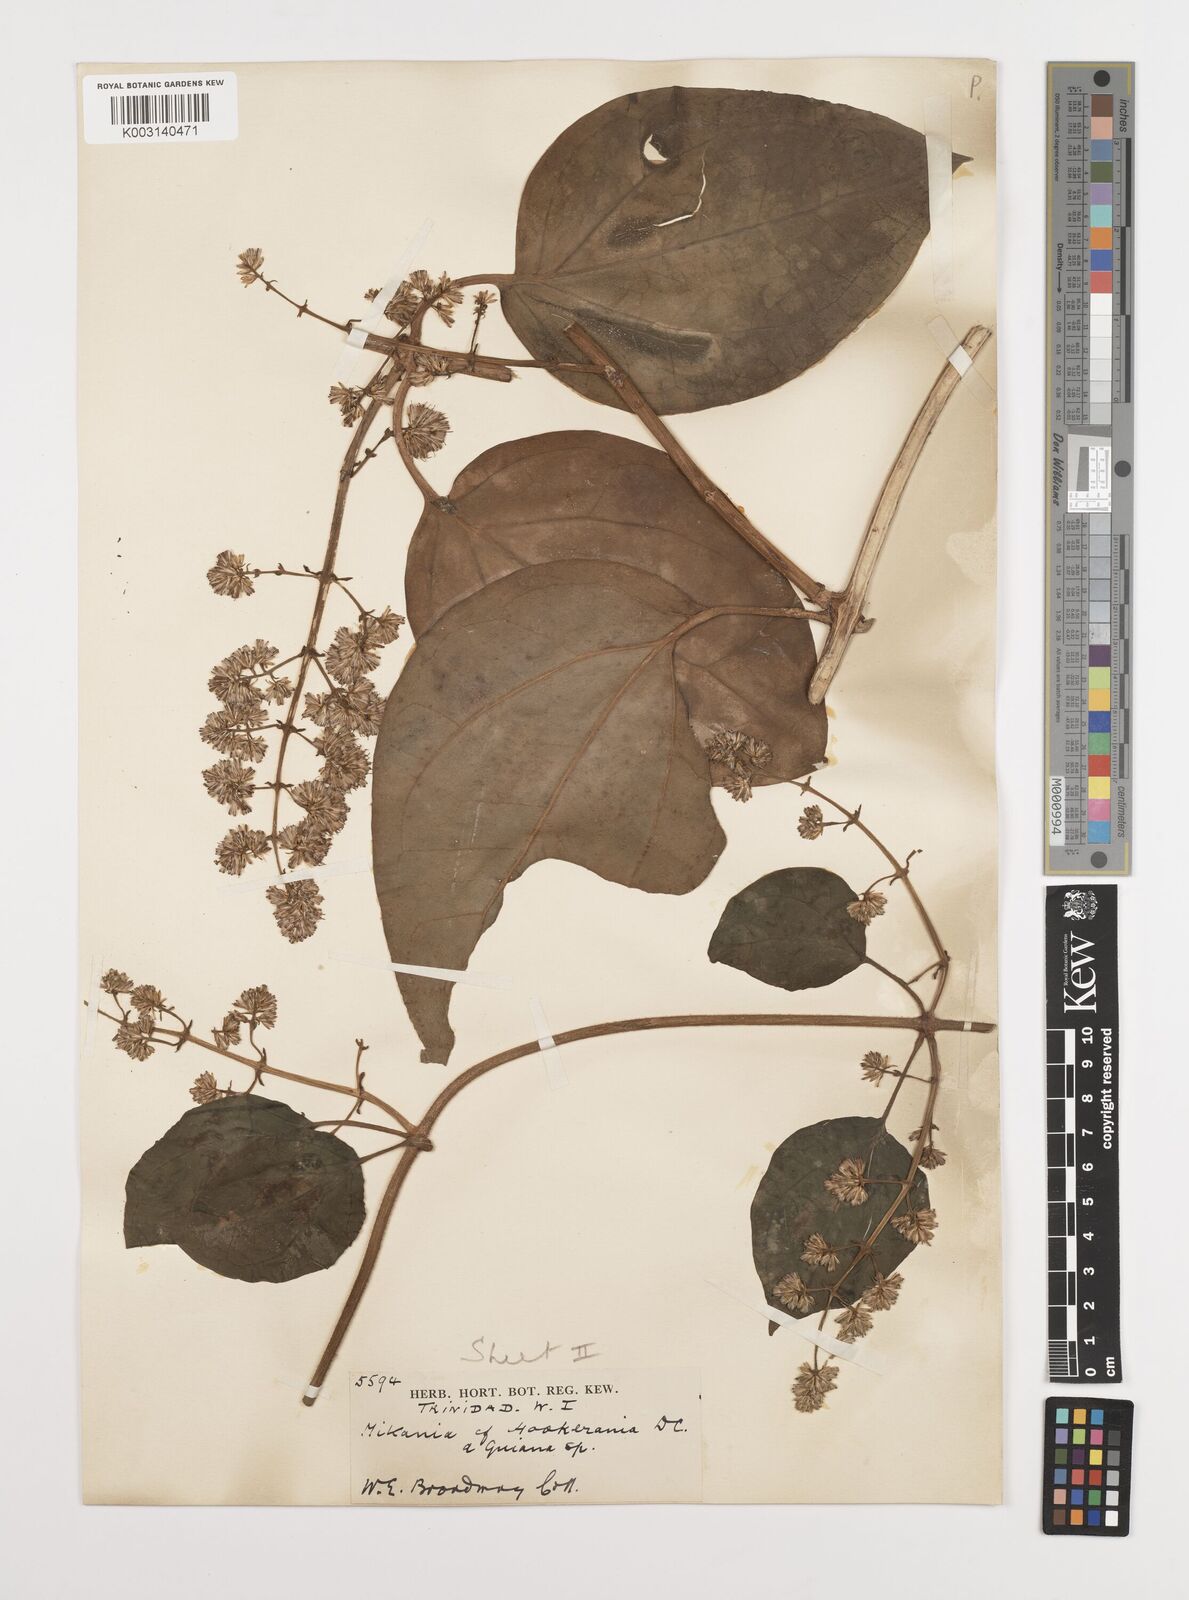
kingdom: Plantae
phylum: Tracheophyta
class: Magnoliopsida
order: Asterales
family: Asteraceae
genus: Mikania
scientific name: Mikania hookeriana
